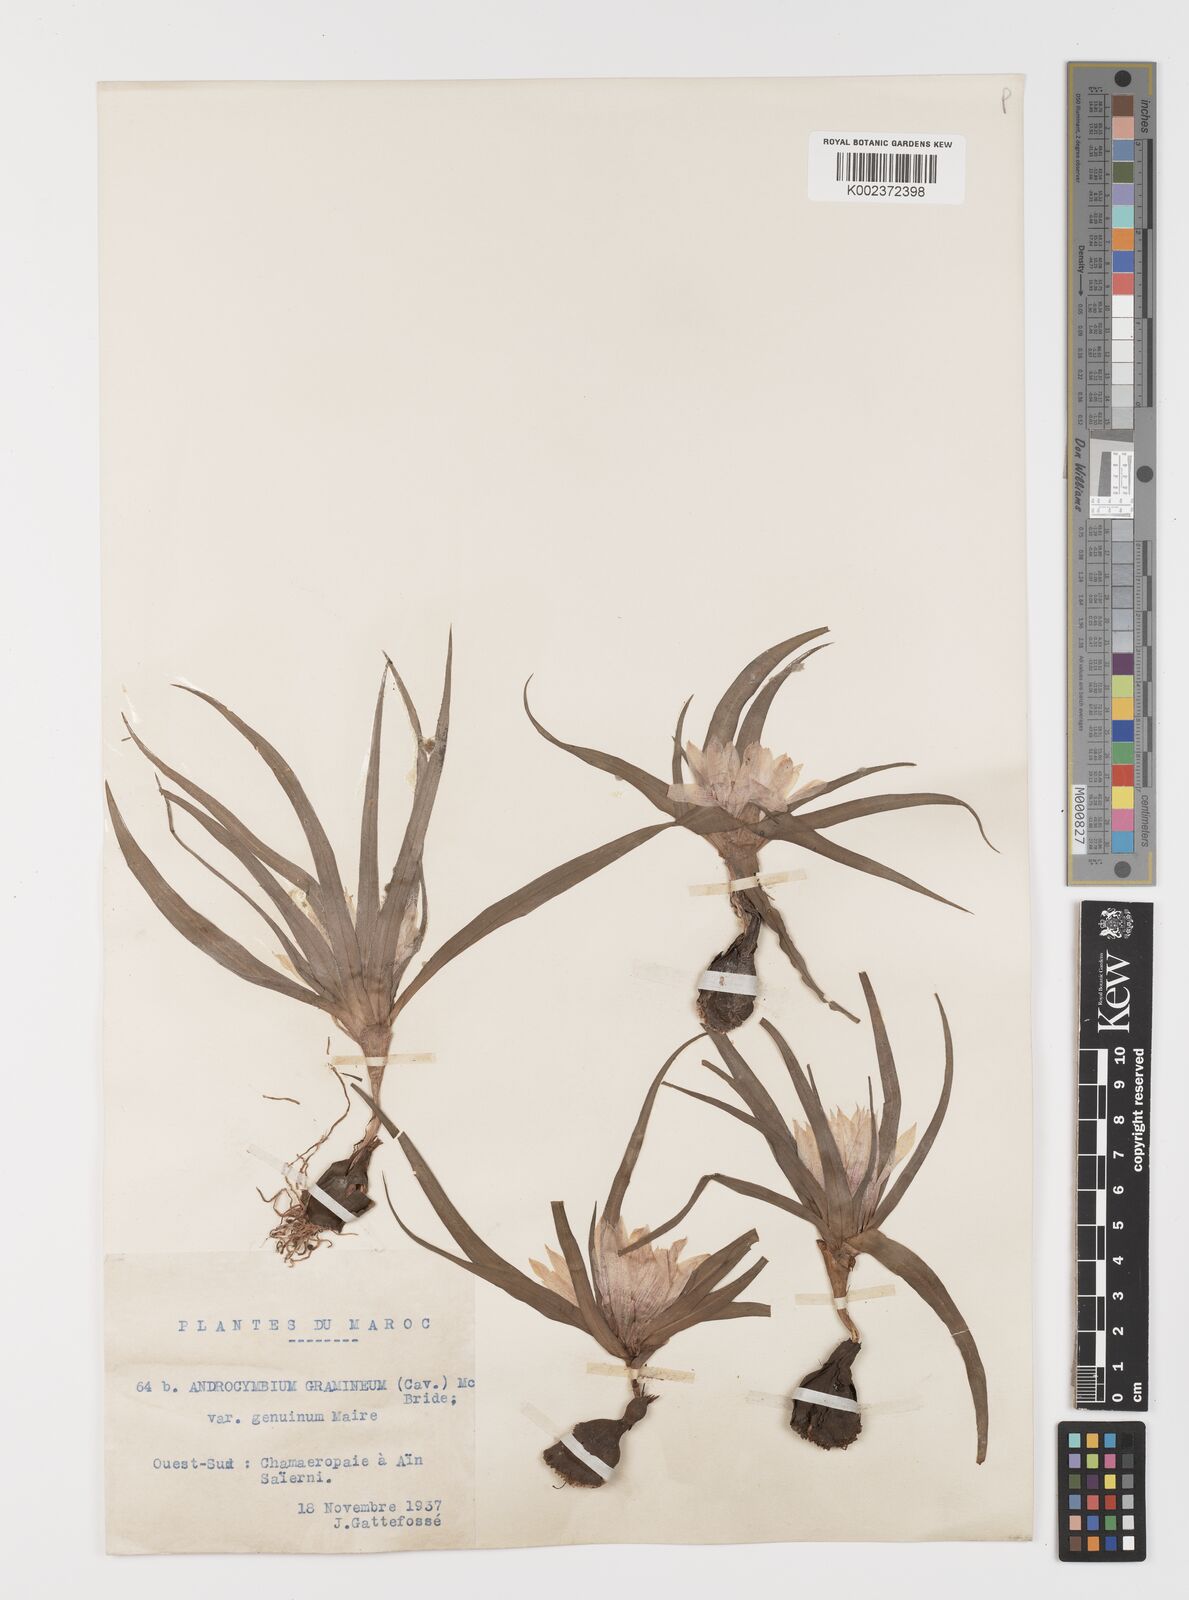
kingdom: Plantae
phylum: Tracheophyta
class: Liliopsida
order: Liliales
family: Colchicaceae
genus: Colchicum
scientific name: Colchicum gramineum
